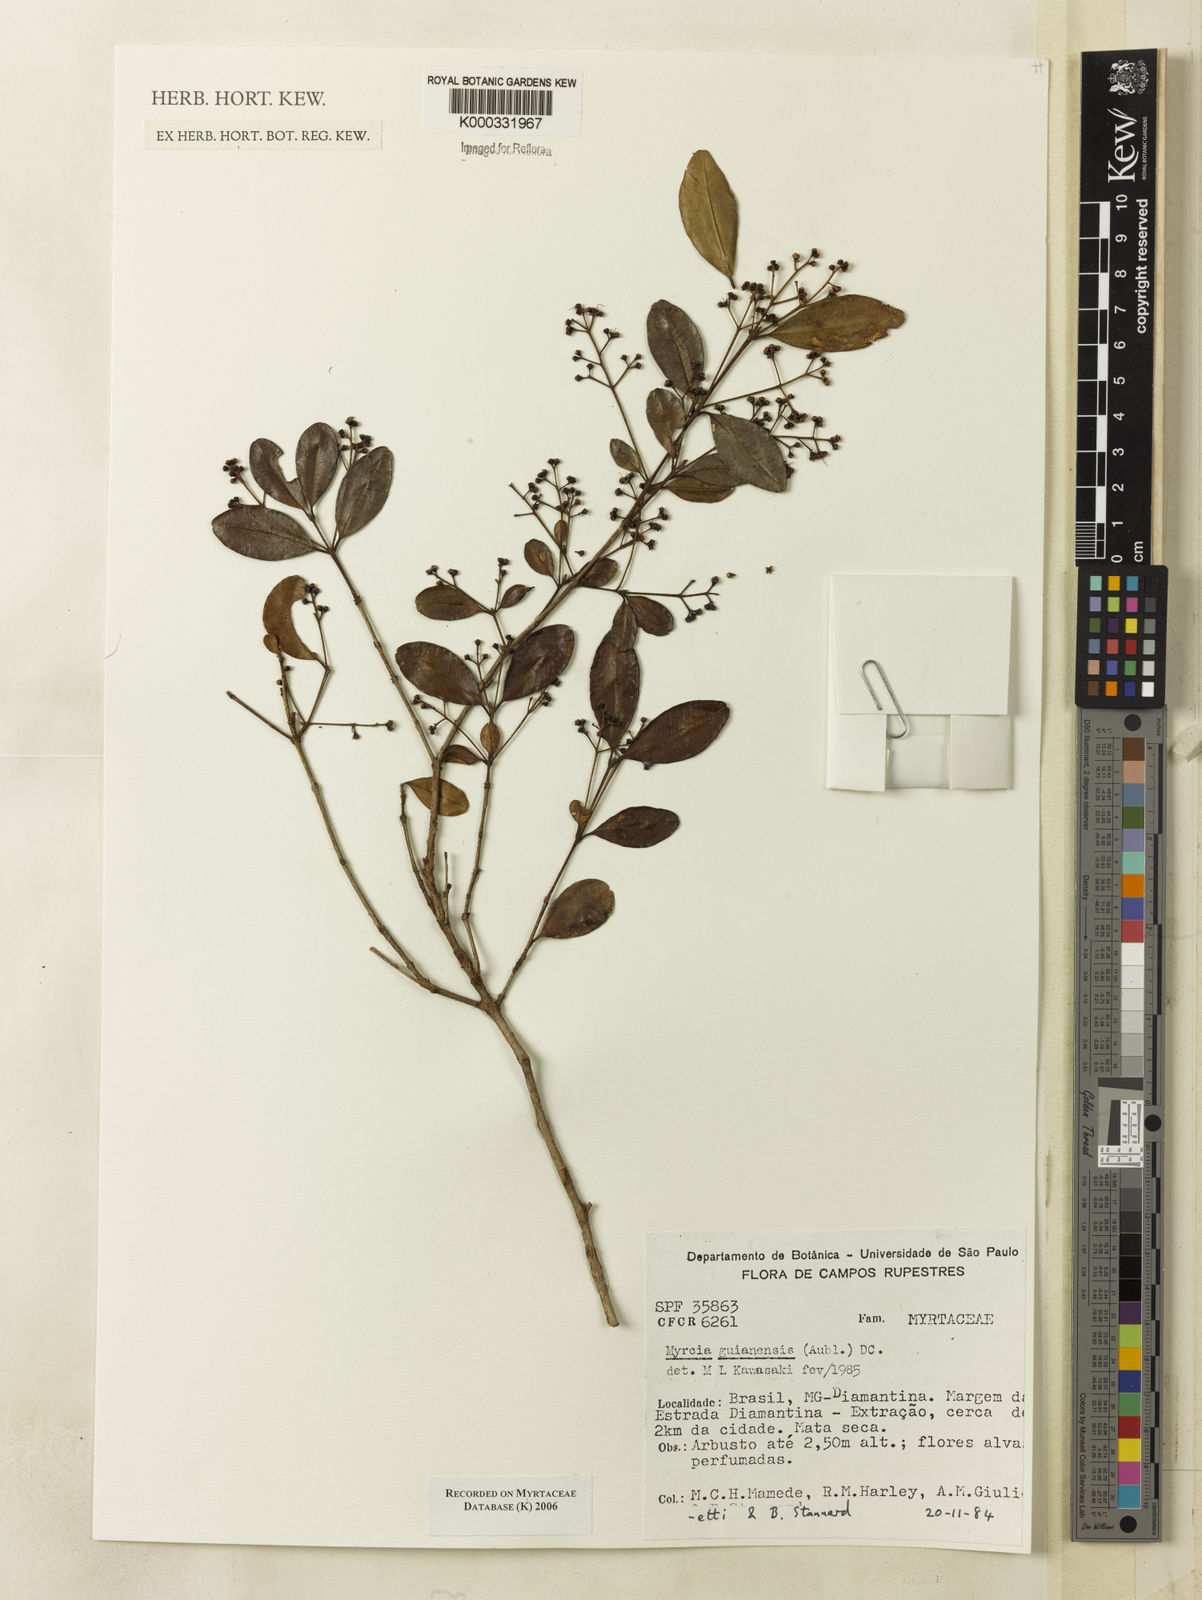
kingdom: Plantae
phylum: Tracheophyta
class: Magnoliopsida
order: Myrtales
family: Myrtaceae
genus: Myrcia
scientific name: Myrcia guianensis
